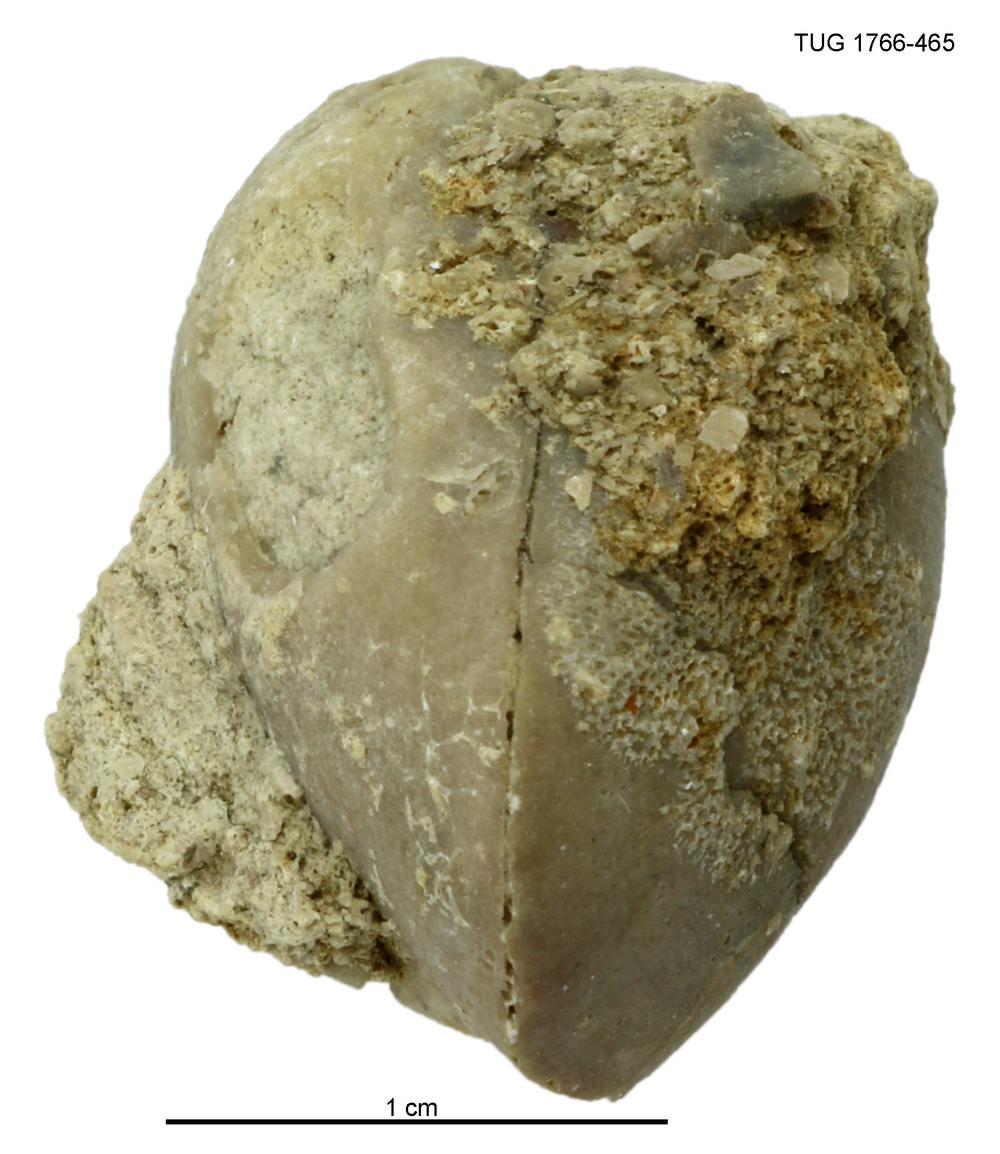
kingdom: Animalia
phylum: Brachiopoda
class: Rhynchonellata
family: Porambonitidae
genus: Porambonites
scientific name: Porambonites
